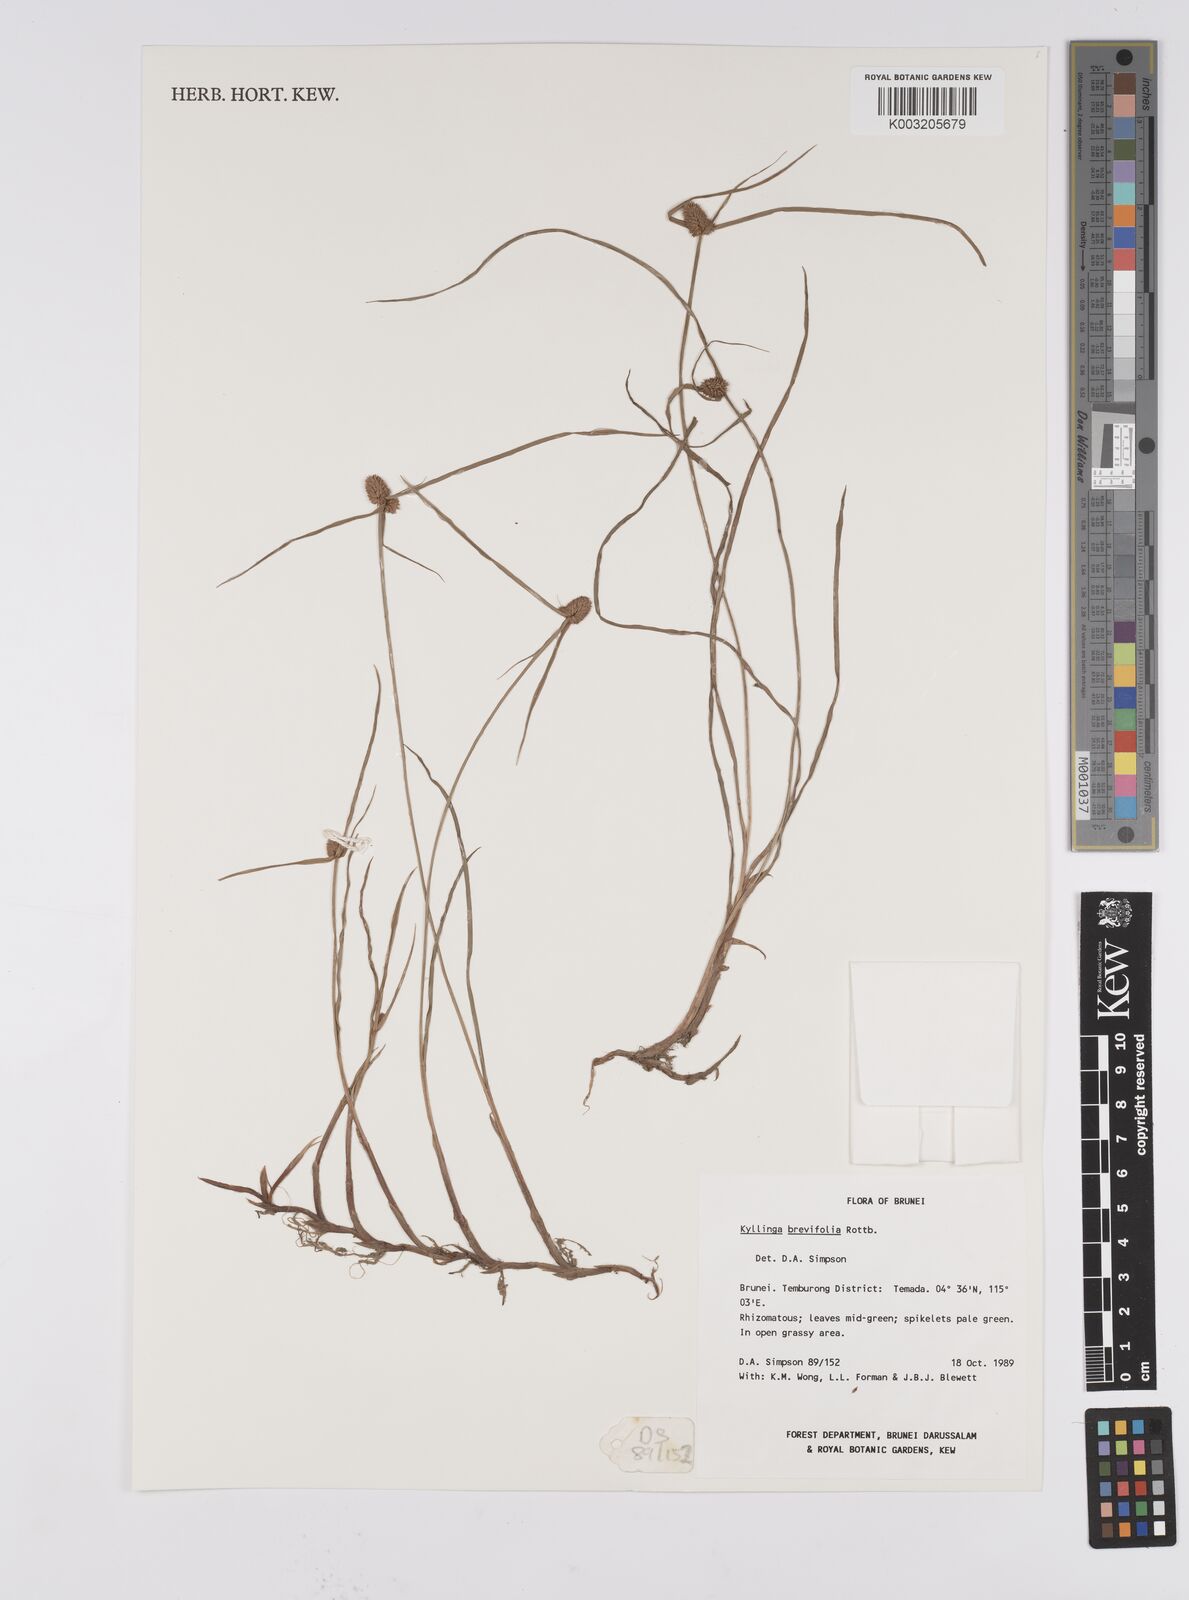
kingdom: Plantae
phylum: Tracheophyta
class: Liliopsida
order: Poales
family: Cyperaceae
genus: Cyperus
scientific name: Cyperus brevifolius
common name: Globe kyllinga
